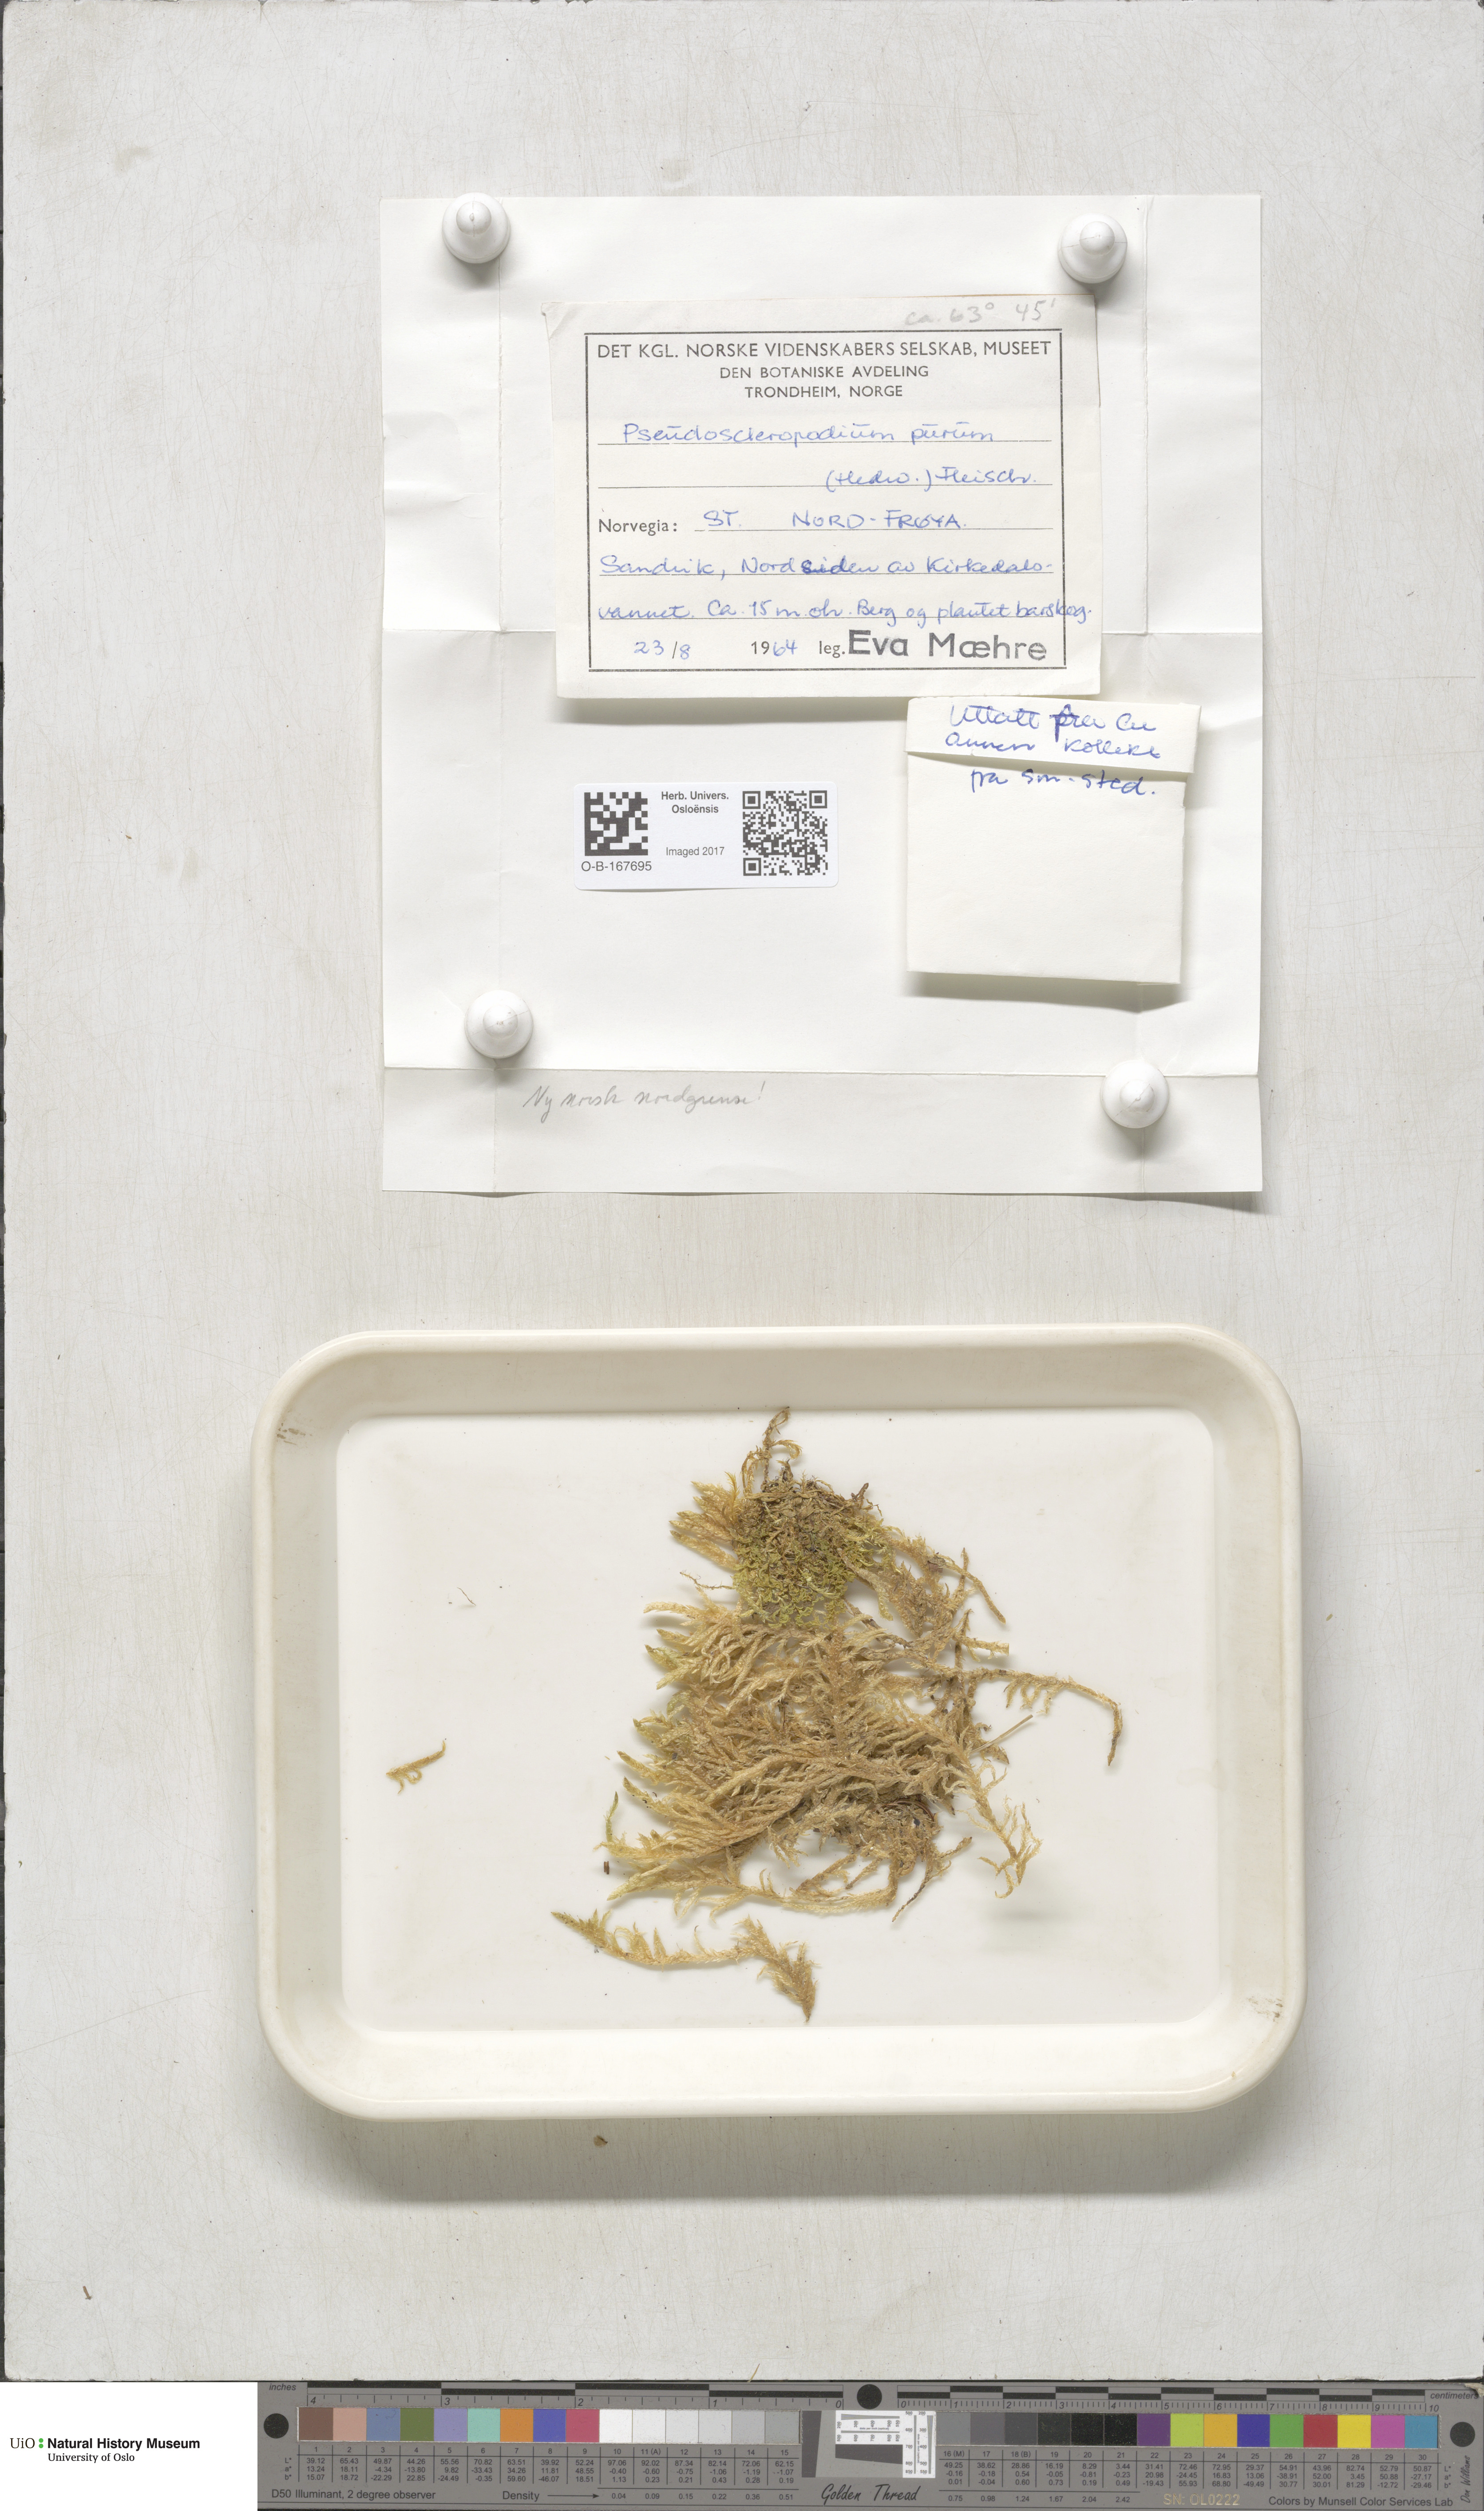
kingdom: Plantae
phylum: Bryophyta
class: Bryopsida
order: Hypnales
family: Brachytheciaceae
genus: Pseudoscleropodium
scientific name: Pseudoscleropodium purum
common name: Neat feather-moss
